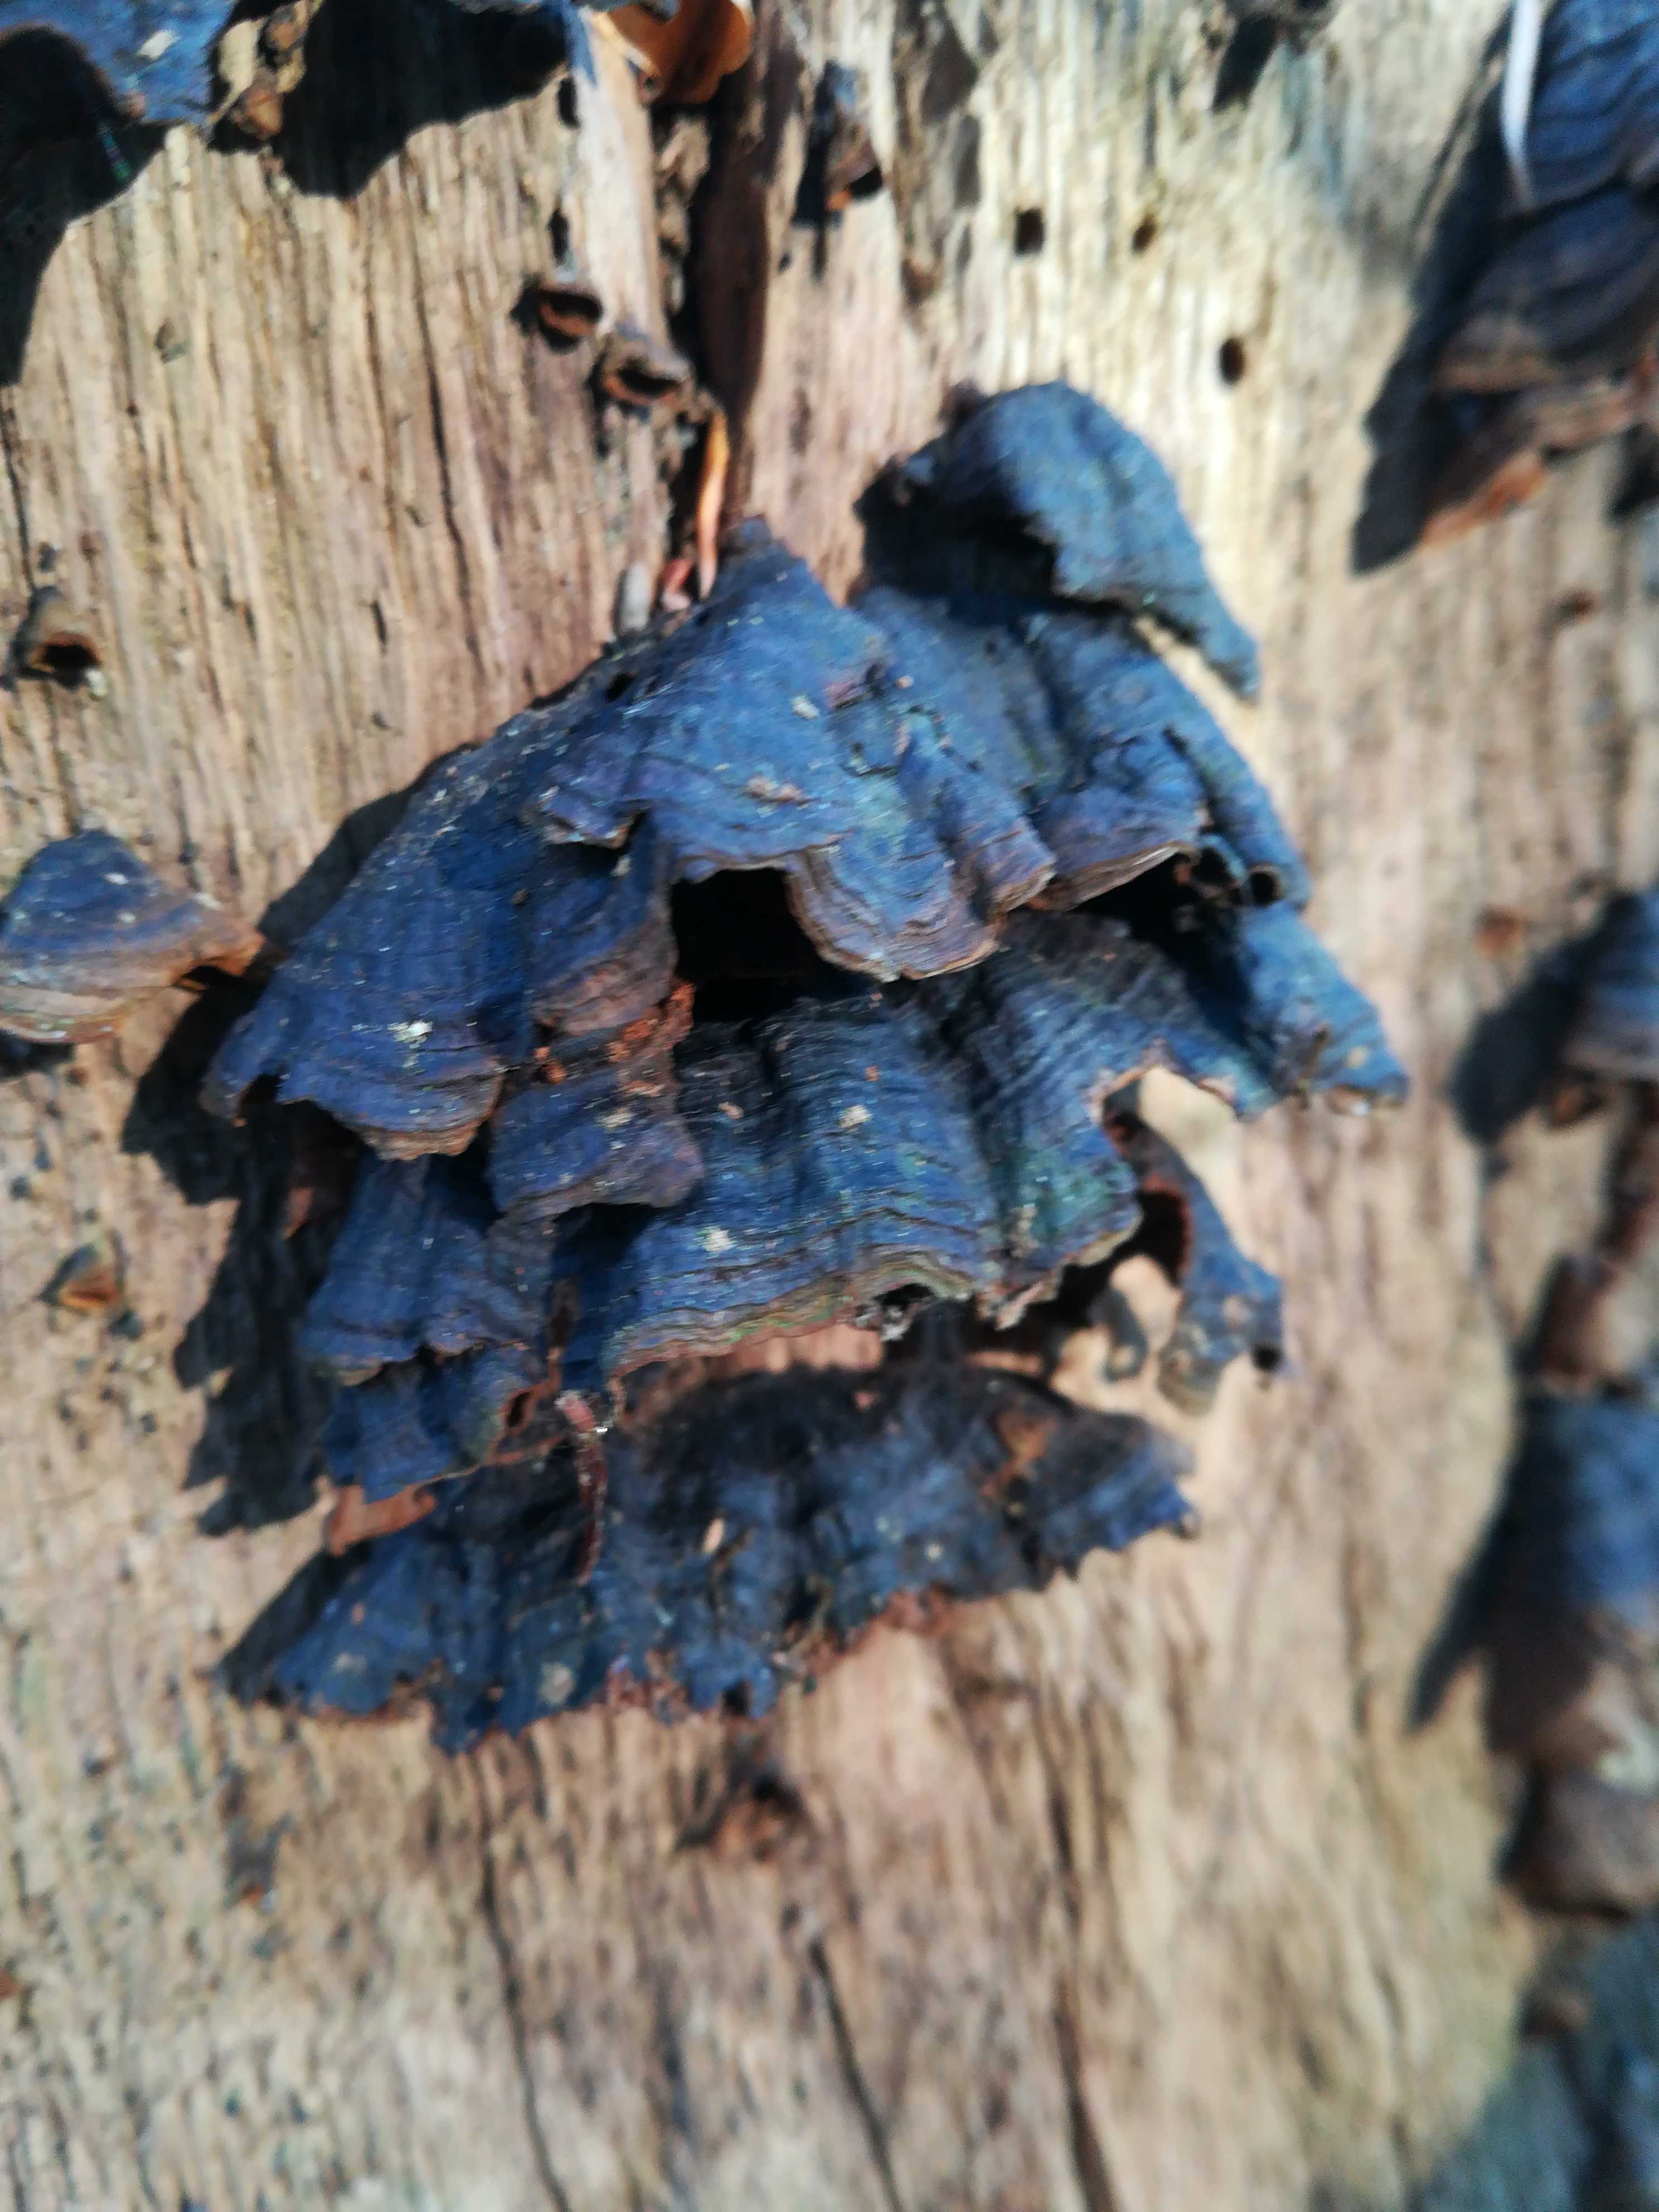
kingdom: Fungi
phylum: Basidiomycota
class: Agaricomycetes
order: Hymenochaetales
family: Hymenochaetaceae
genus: Hymenochaete
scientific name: Hymenochaete rubiginosa
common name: stiv ruslædersvamp
